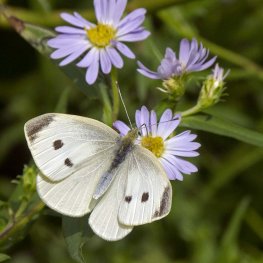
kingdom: Animalia
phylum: Arthropoda
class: Insecta
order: Lepidoptera
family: Pieridae
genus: Pieris
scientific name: Pieris rapae
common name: Cabbage White
